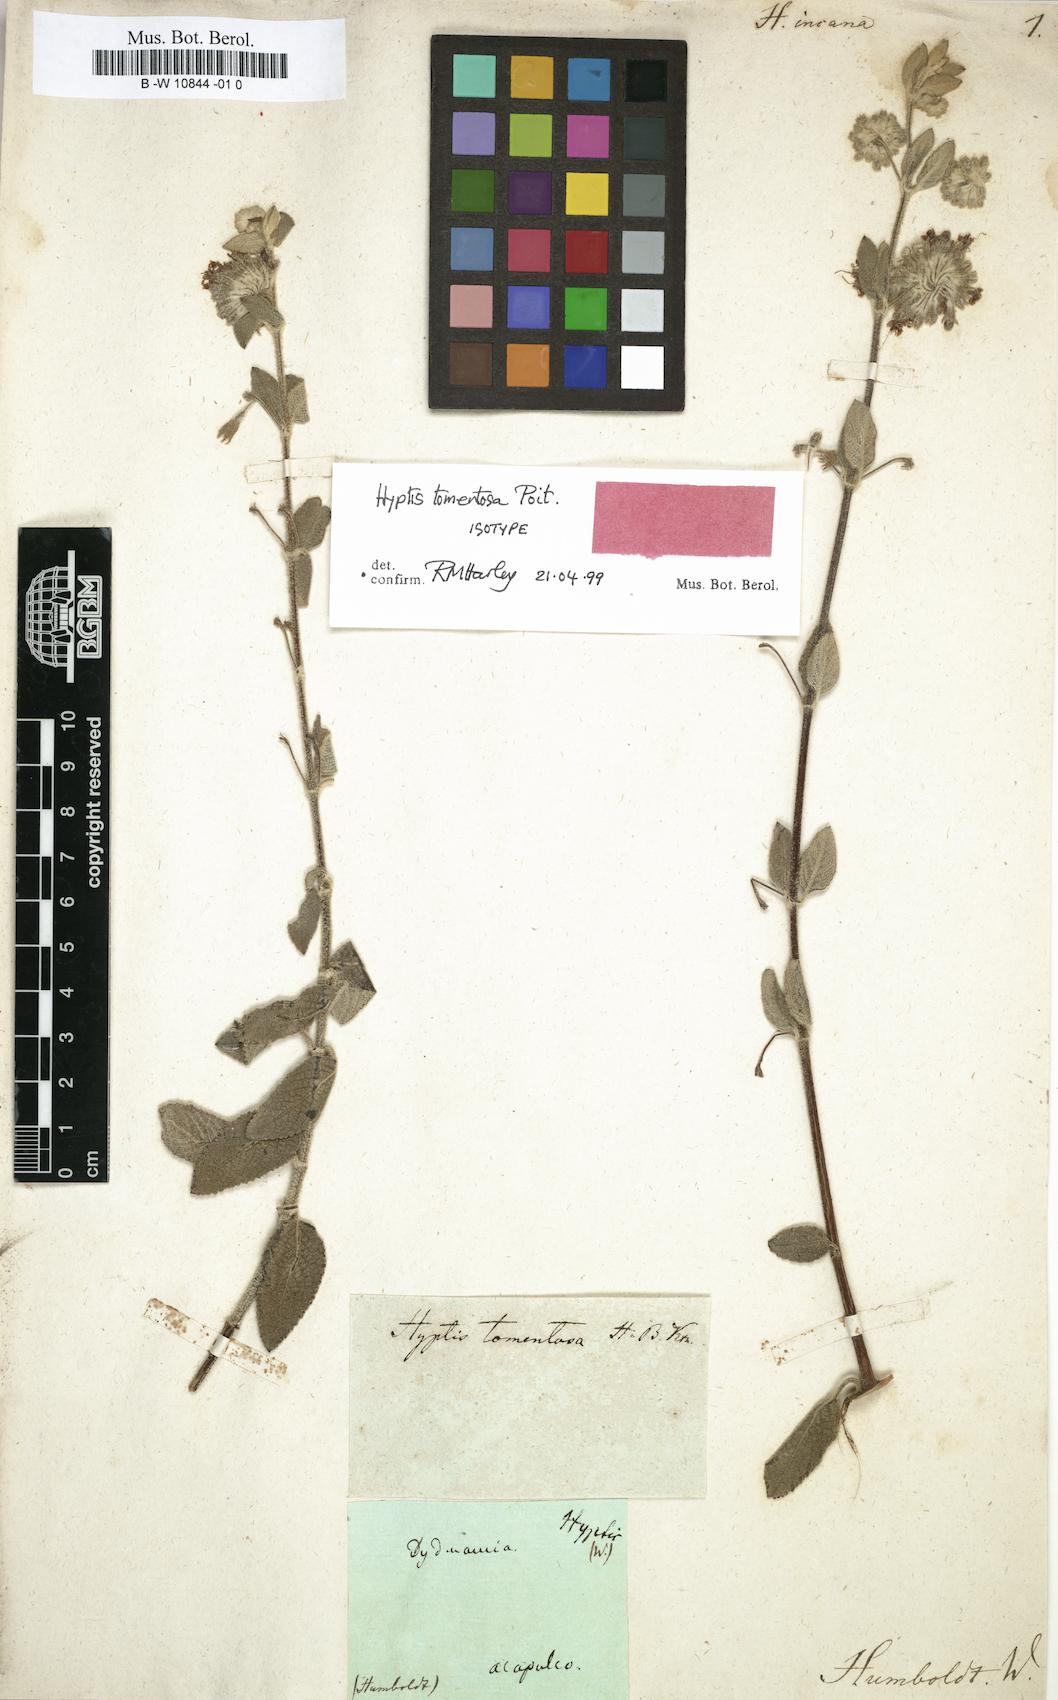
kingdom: Plantae
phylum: Tracheophyta
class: Magnoliopsida
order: Lamiales
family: Lamiaceae
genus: Condea
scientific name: Condea tomentosa
